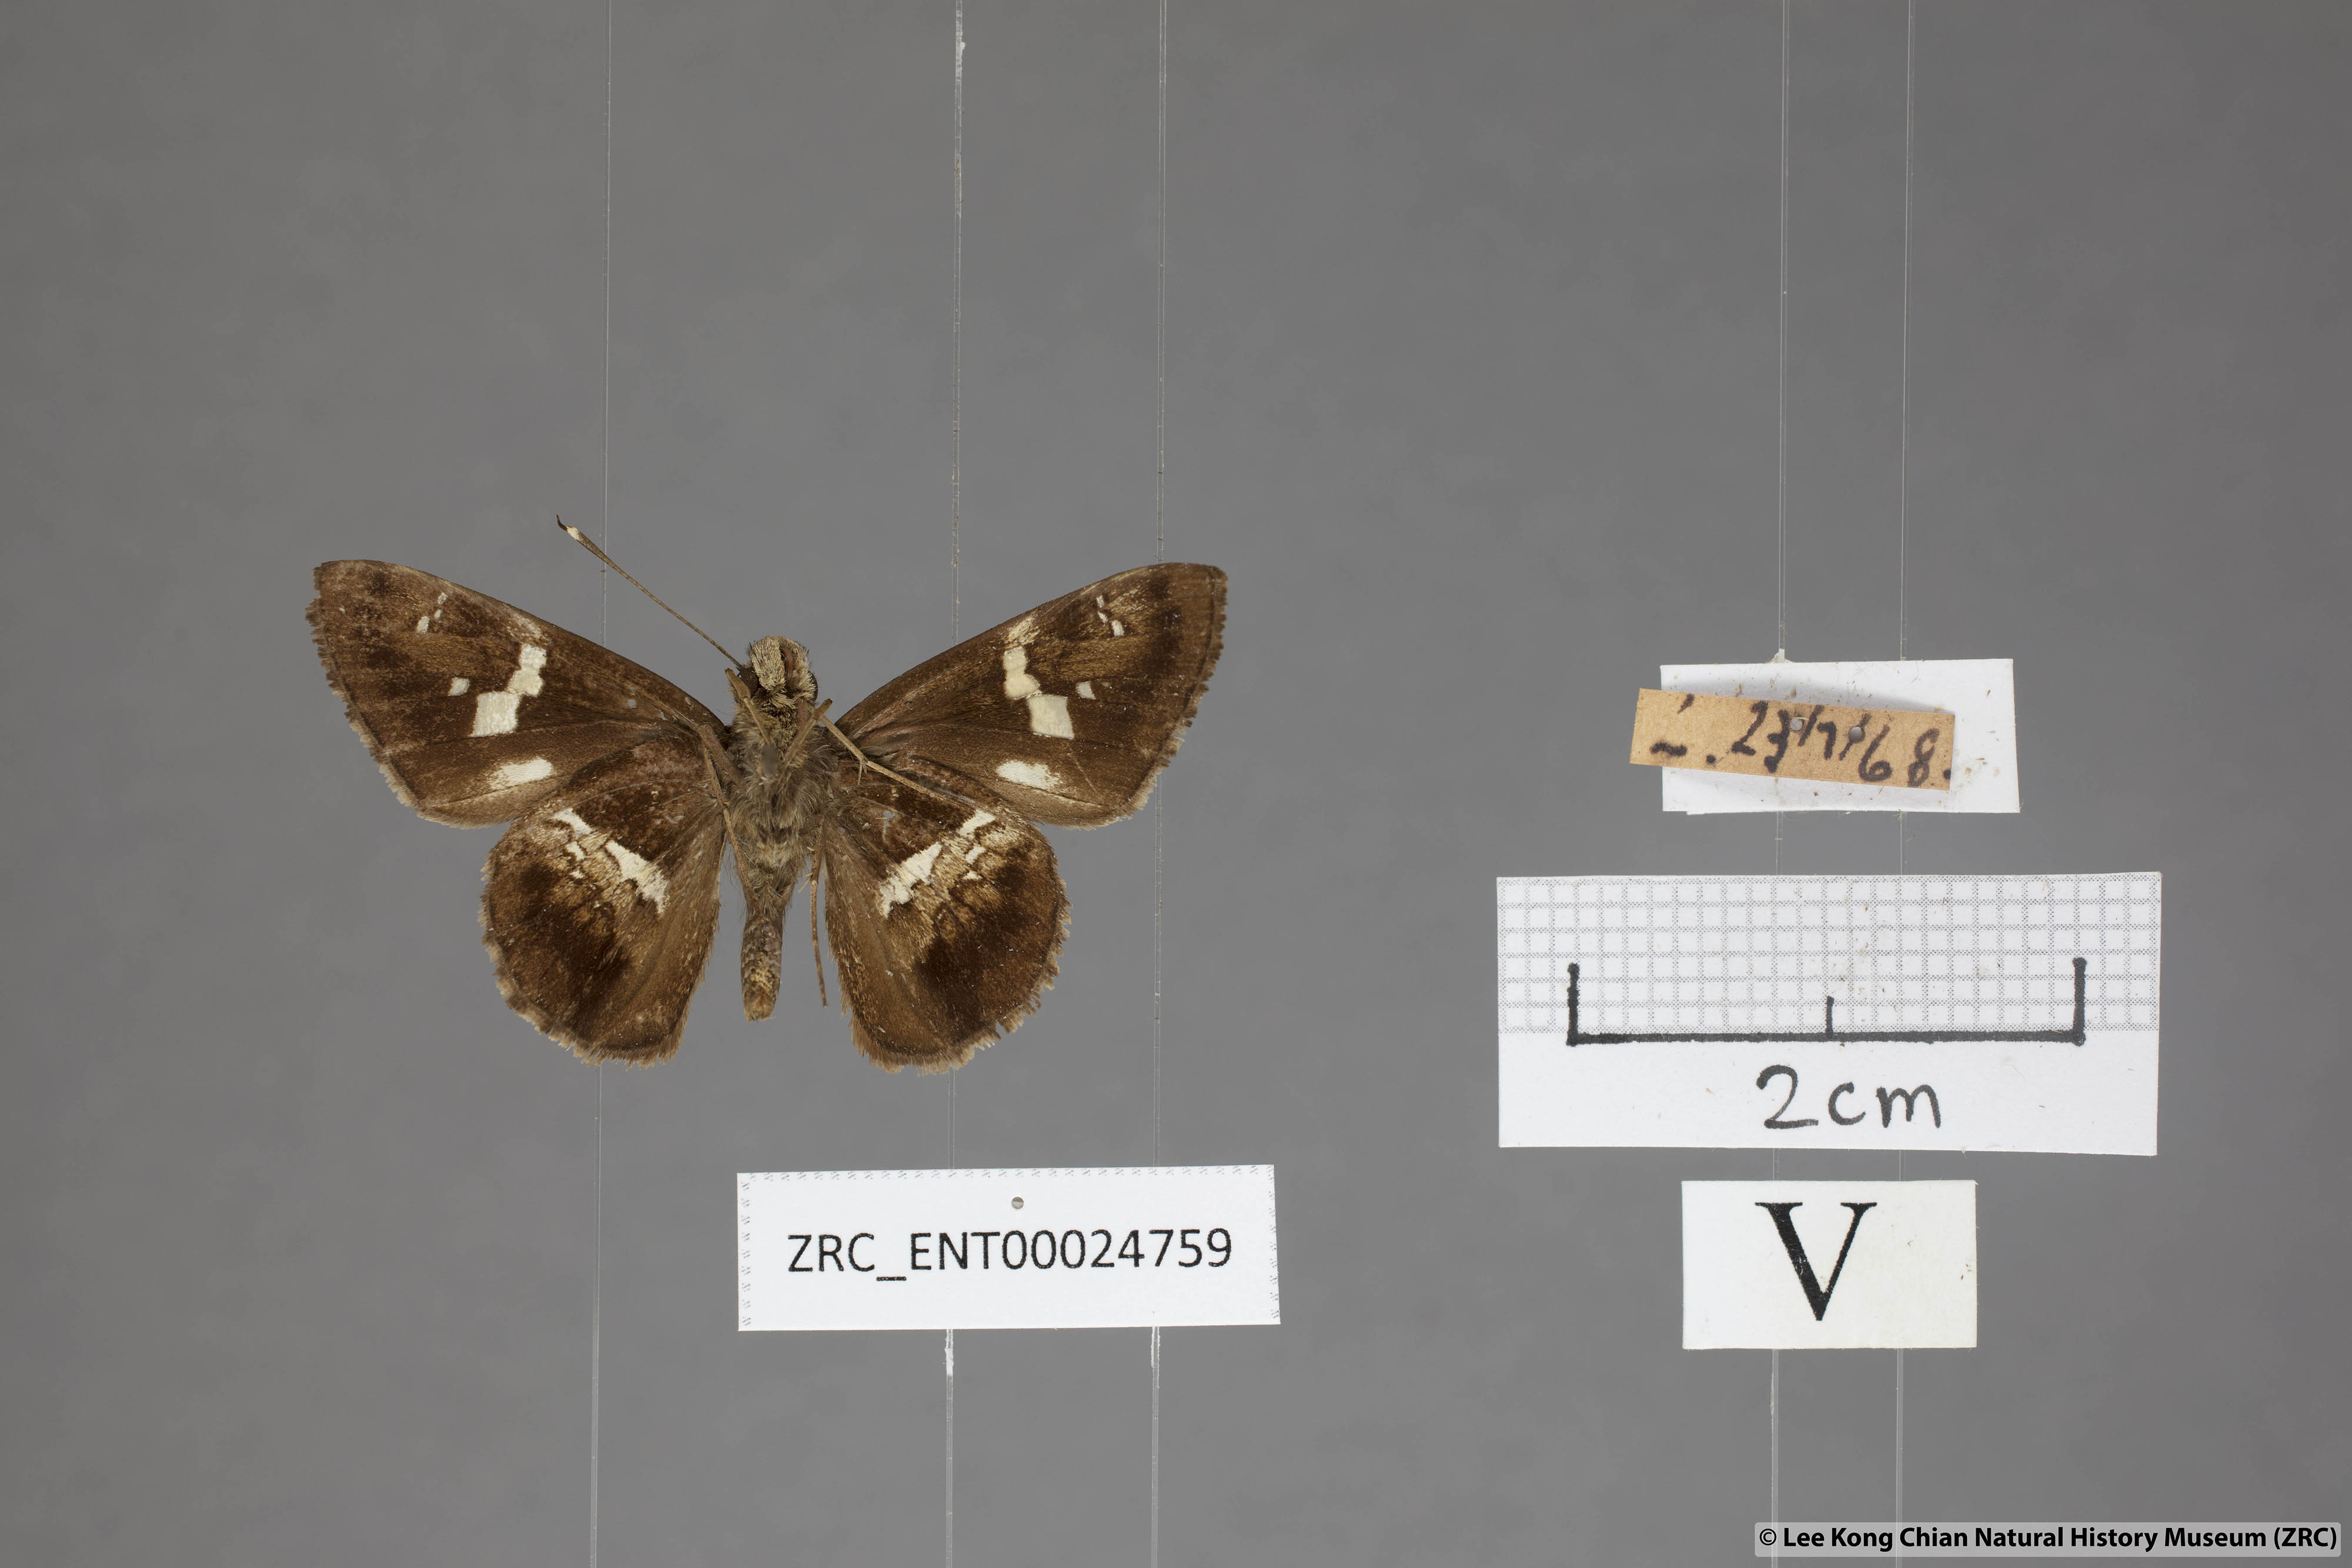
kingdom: Animalia
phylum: Arthropoda
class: Insecta
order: Lepidoptera
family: Hesperiidae
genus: Hyarotis
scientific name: Hyarotis adrastus
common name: Tree flitter
